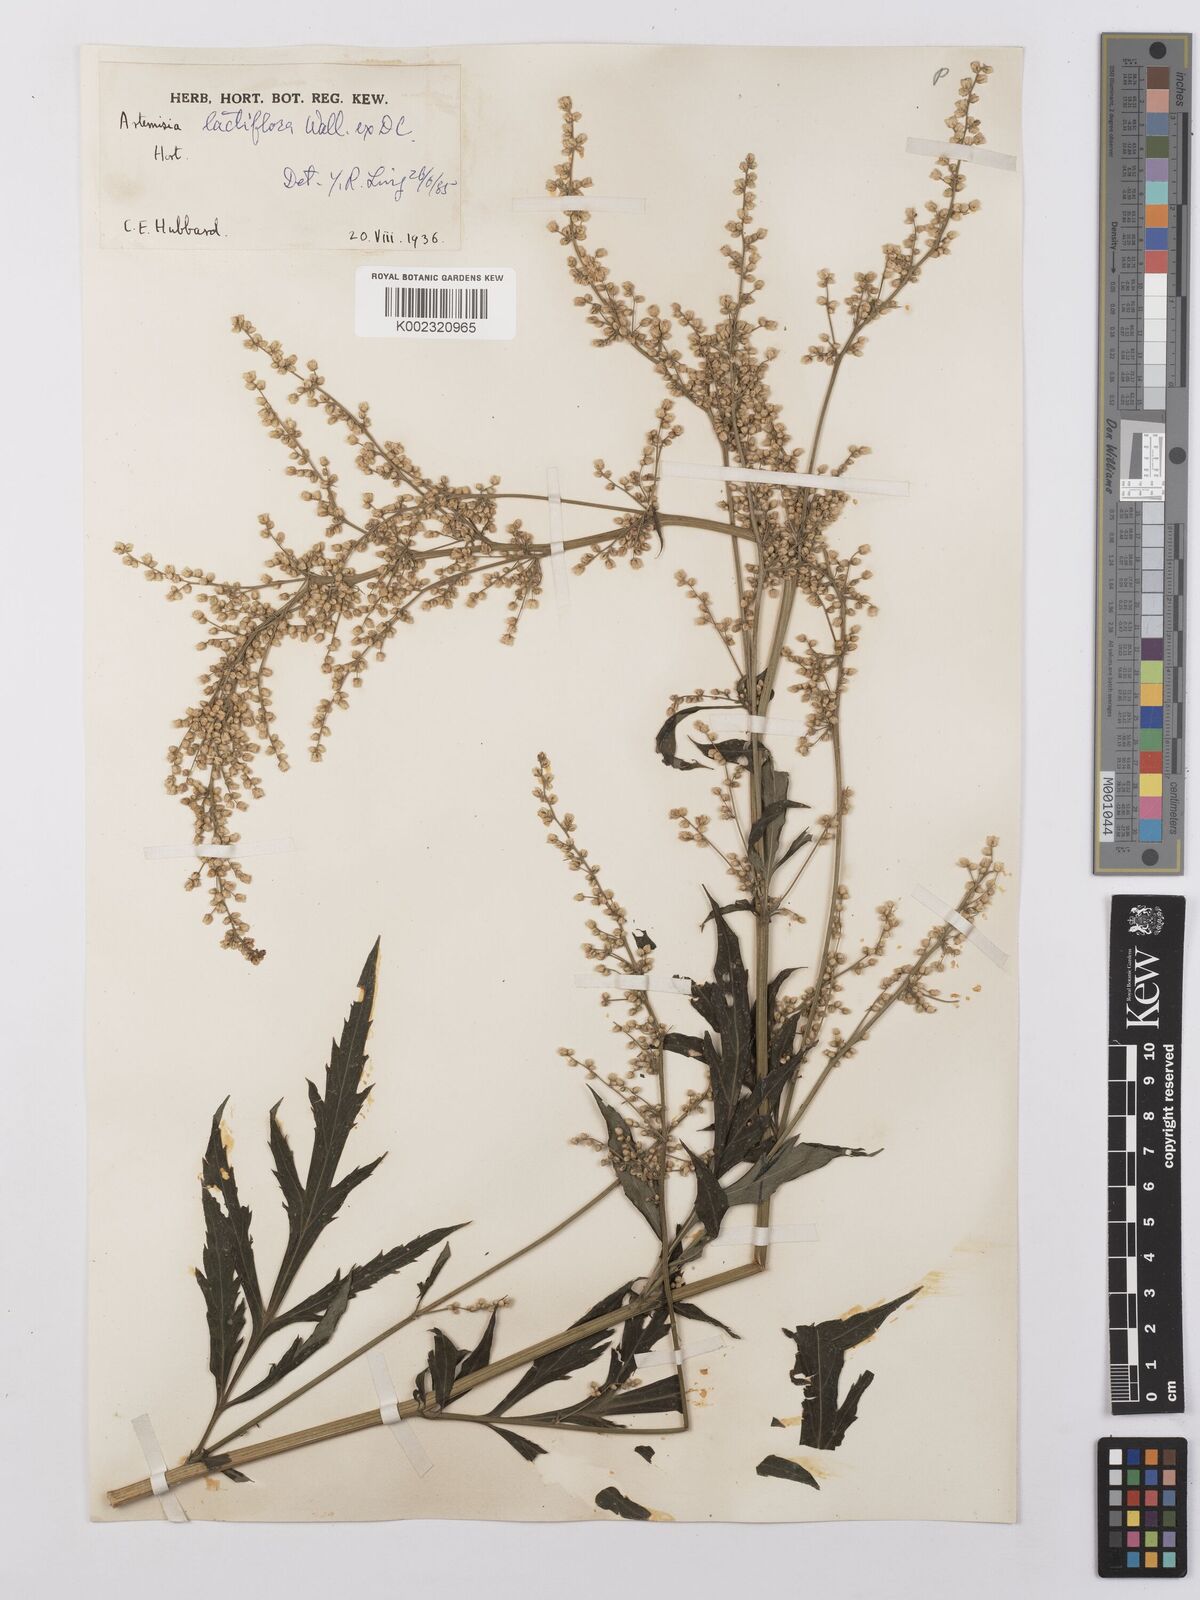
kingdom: Plantae
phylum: Tracheophyta
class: Magnoliopsida
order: Asterales
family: Asteraceae
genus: Artemisia
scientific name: Artemisia
